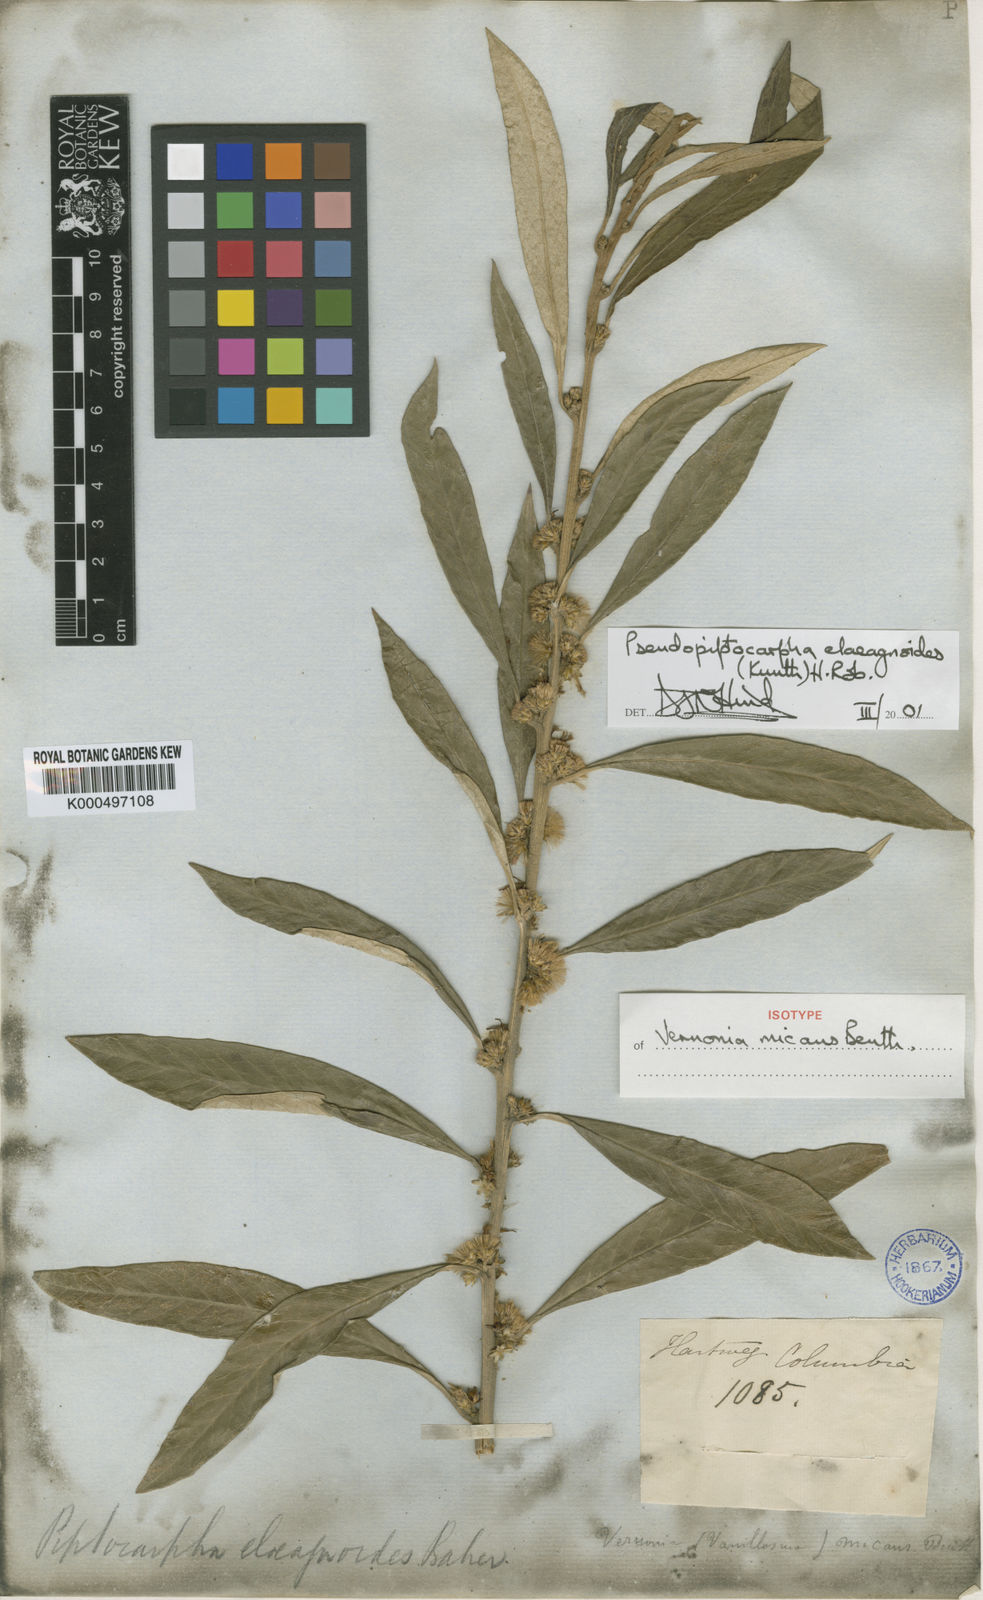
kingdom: Plantae
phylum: Tracheophyta
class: Magnoliopsida
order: Asterales
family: Asteraceae
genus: Pseudopiptocarpha
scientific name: Pseudopiptocarpha elaeagnoides
